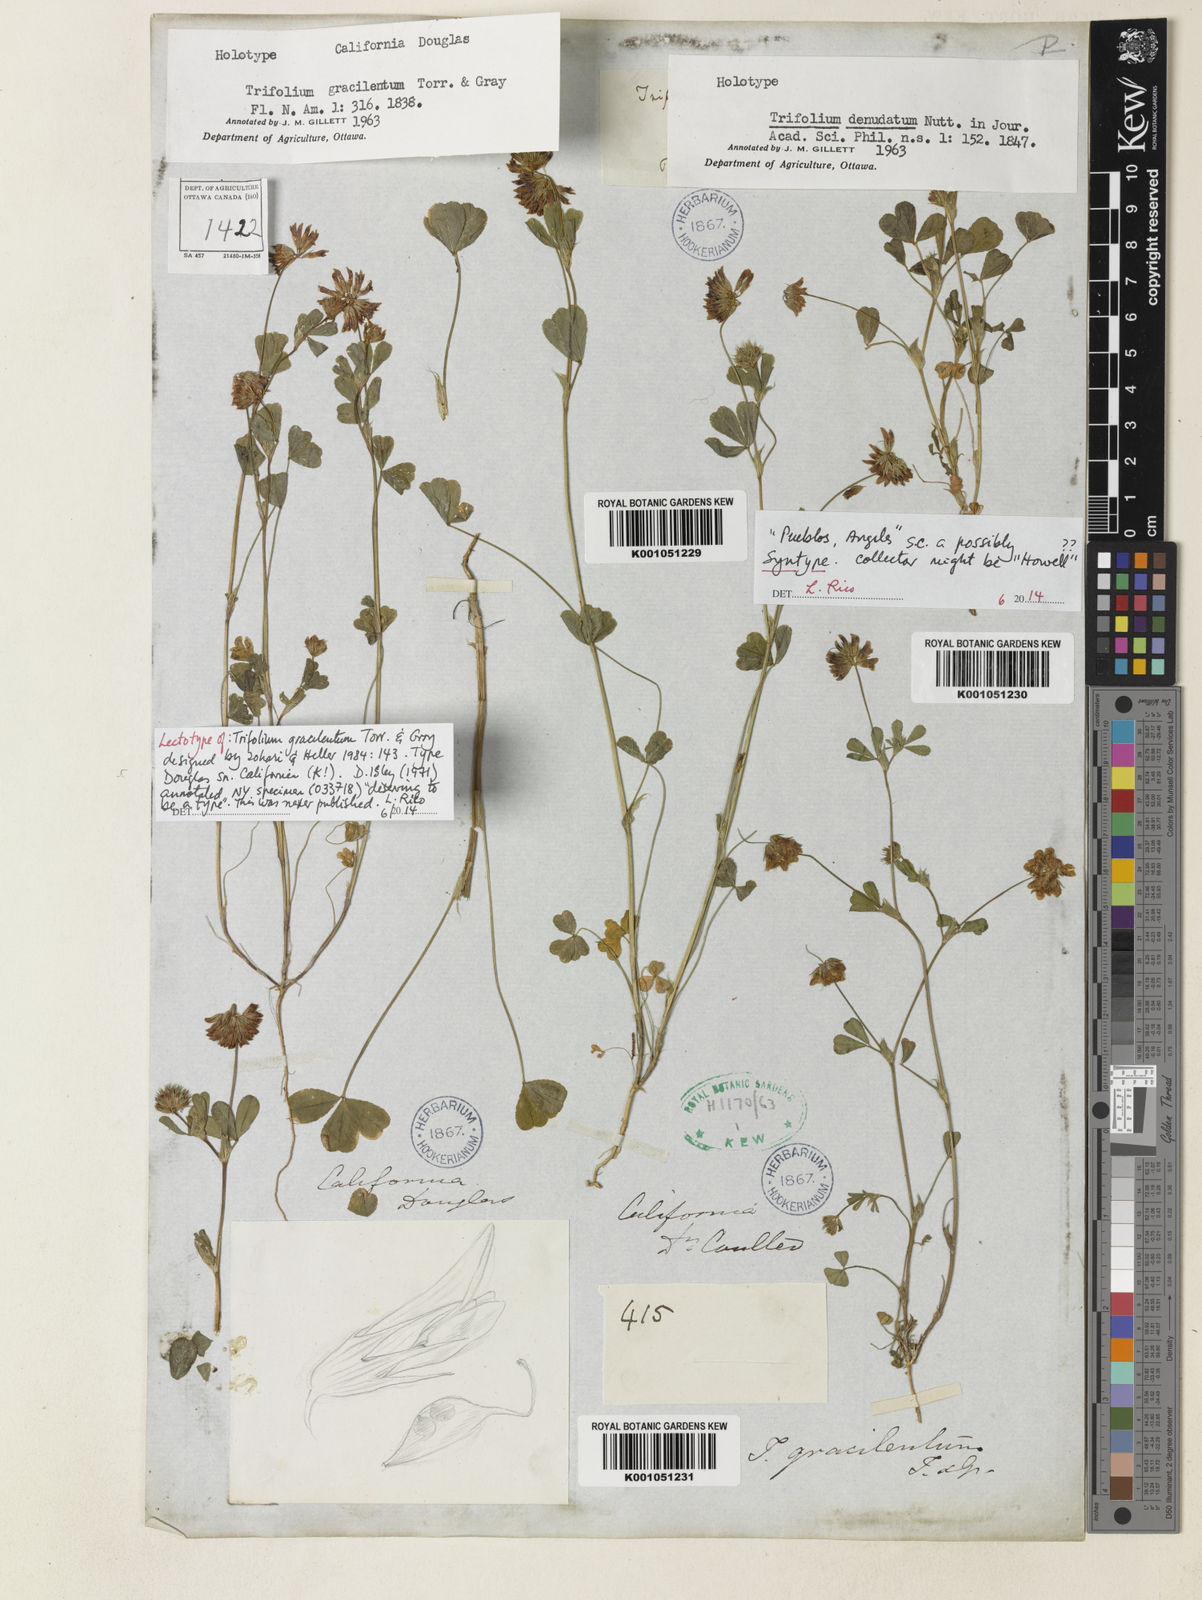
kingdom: Plantae
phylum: Tracheophyta
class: Magnoliopsida
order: Fabales
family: Fabaceae
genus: Trifolium
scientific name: Trifolium gracilentum
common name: Slender clover
